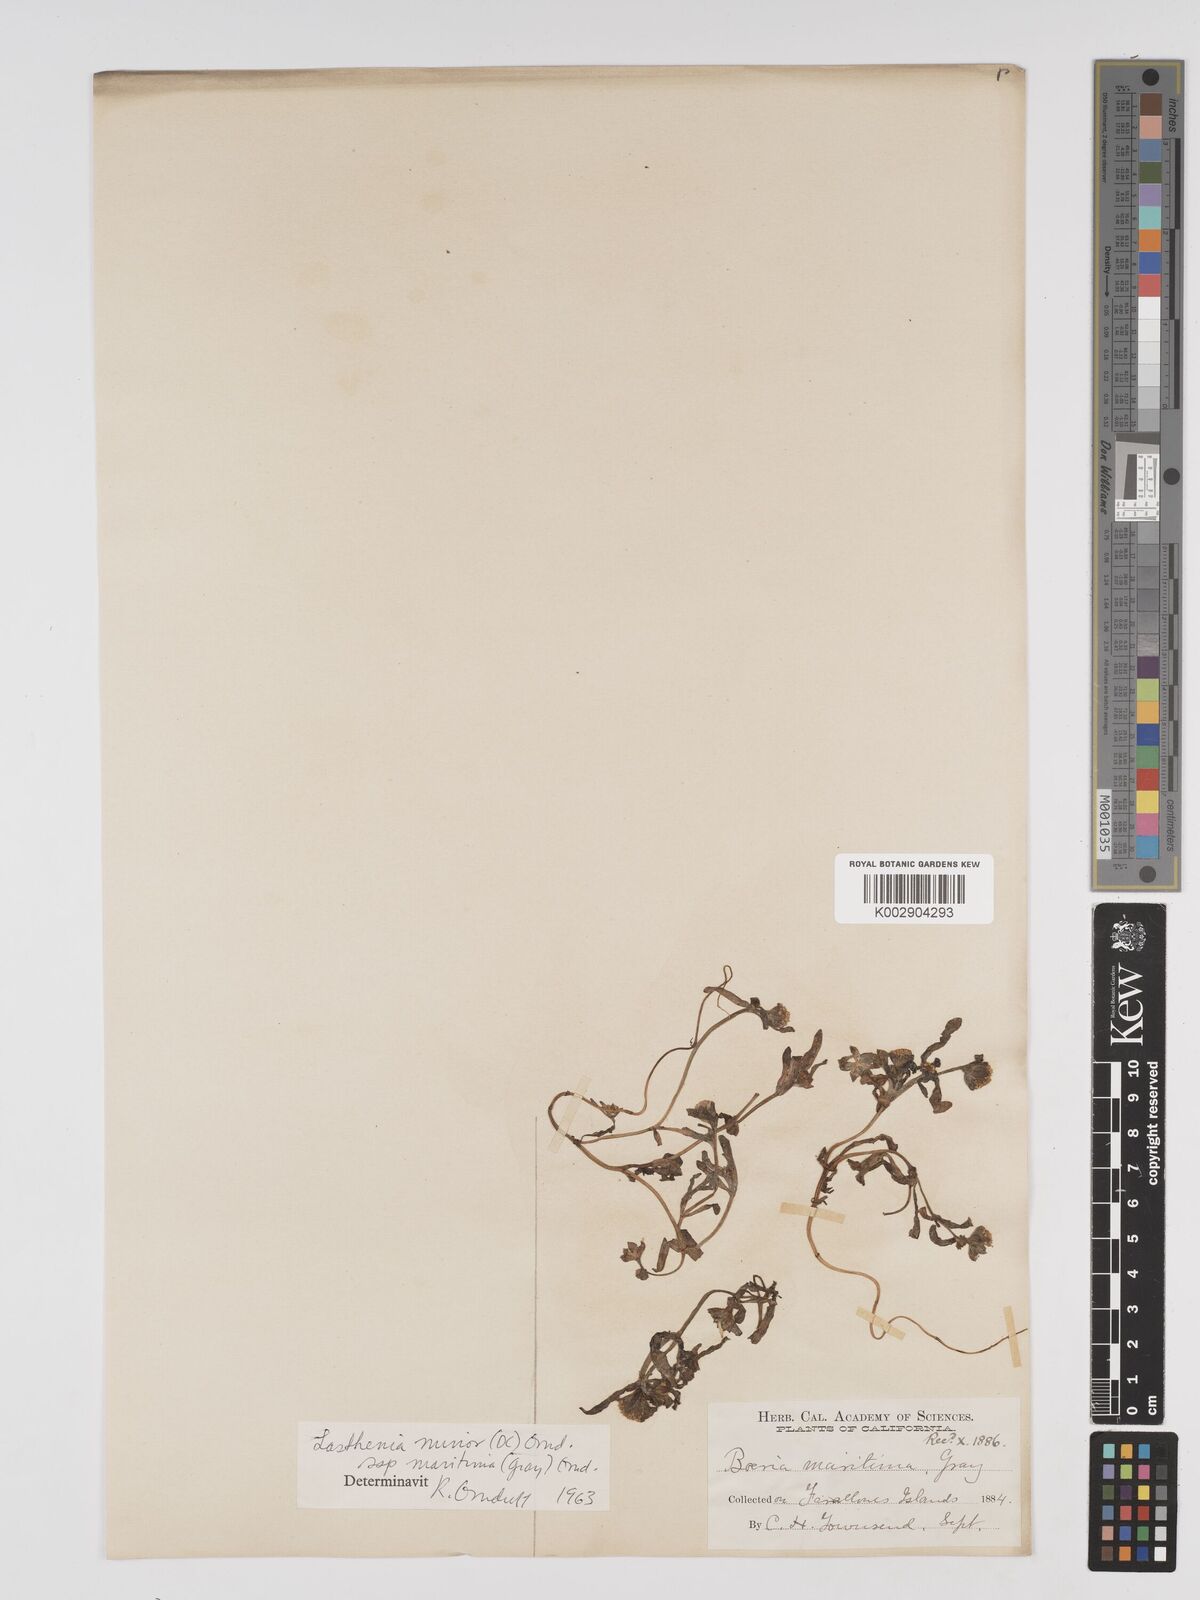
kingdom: Plantae
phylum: Tracheophyta
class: Magnoliopsida
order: Asterales
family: Asteraceae
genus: Lasthenia
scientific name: Lasthenia maritima
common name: Hairy goldfields
